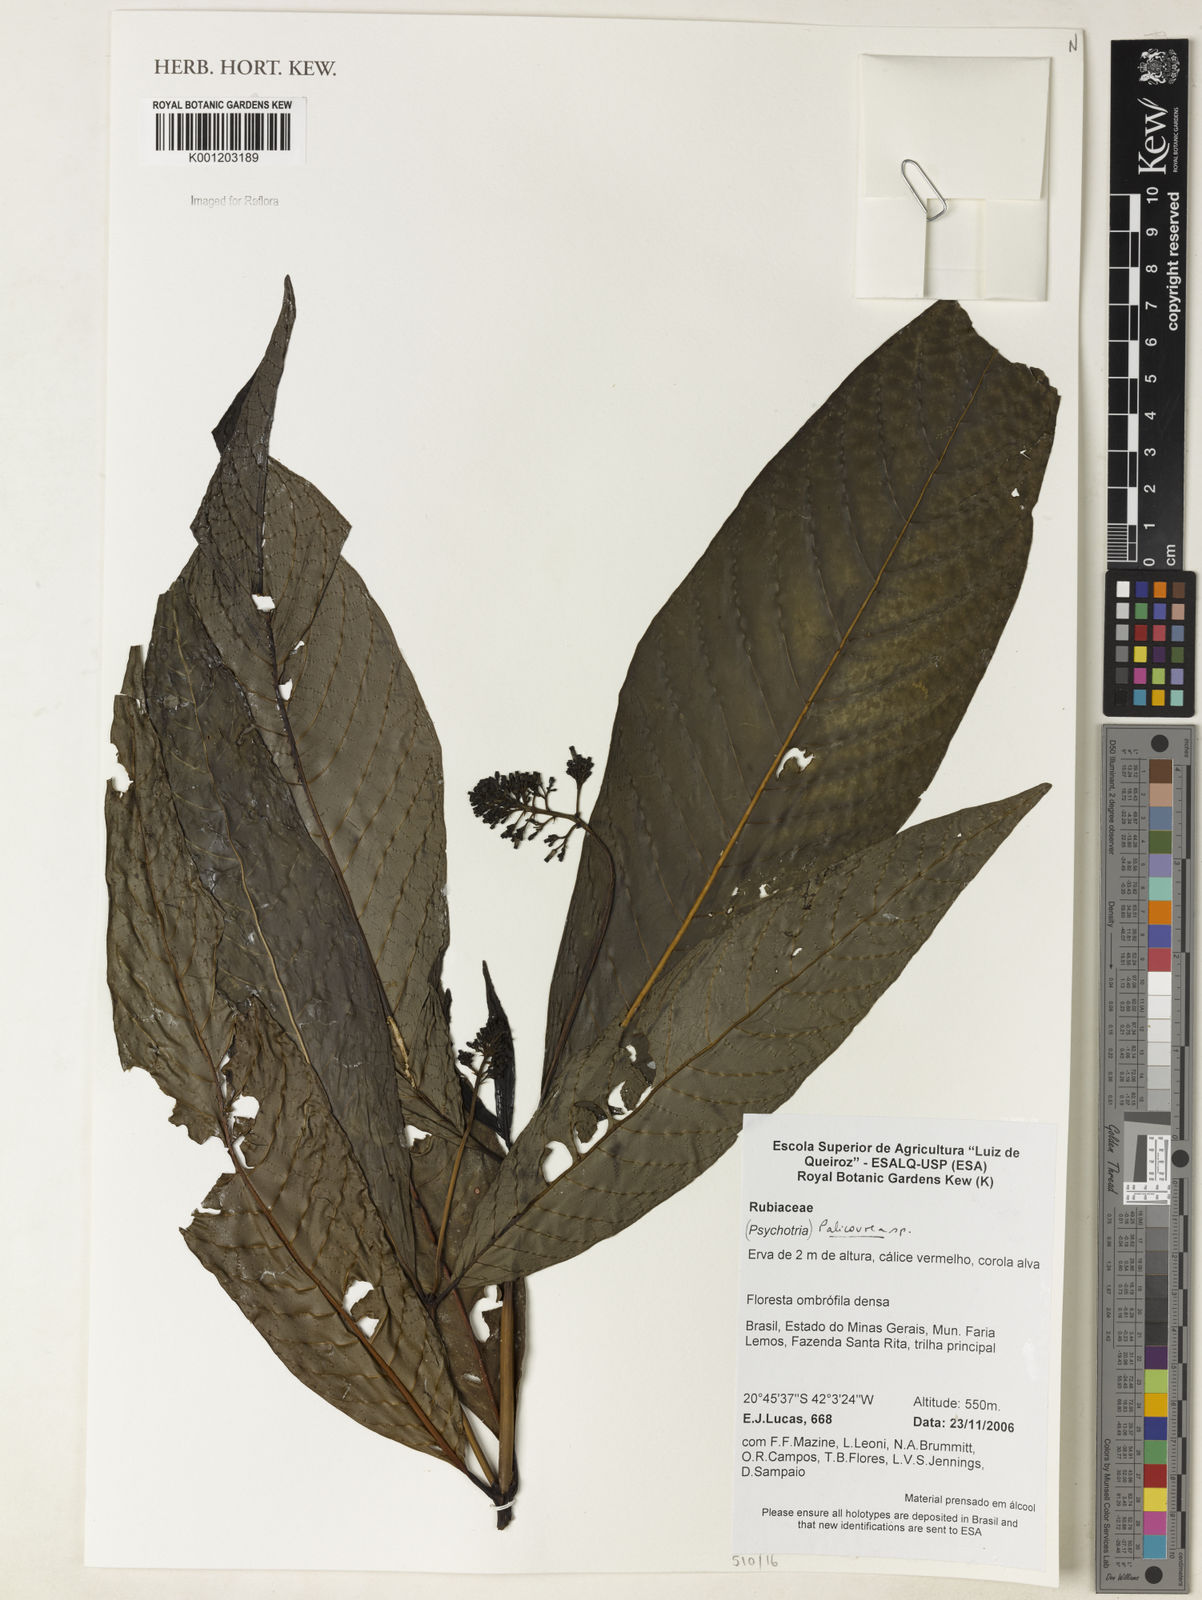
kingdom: Plantae
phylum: Tracheophyta
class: Magnoliopsida
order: Gentianales
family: Rubiaceae
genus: Palicourea
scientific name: Palicourea
